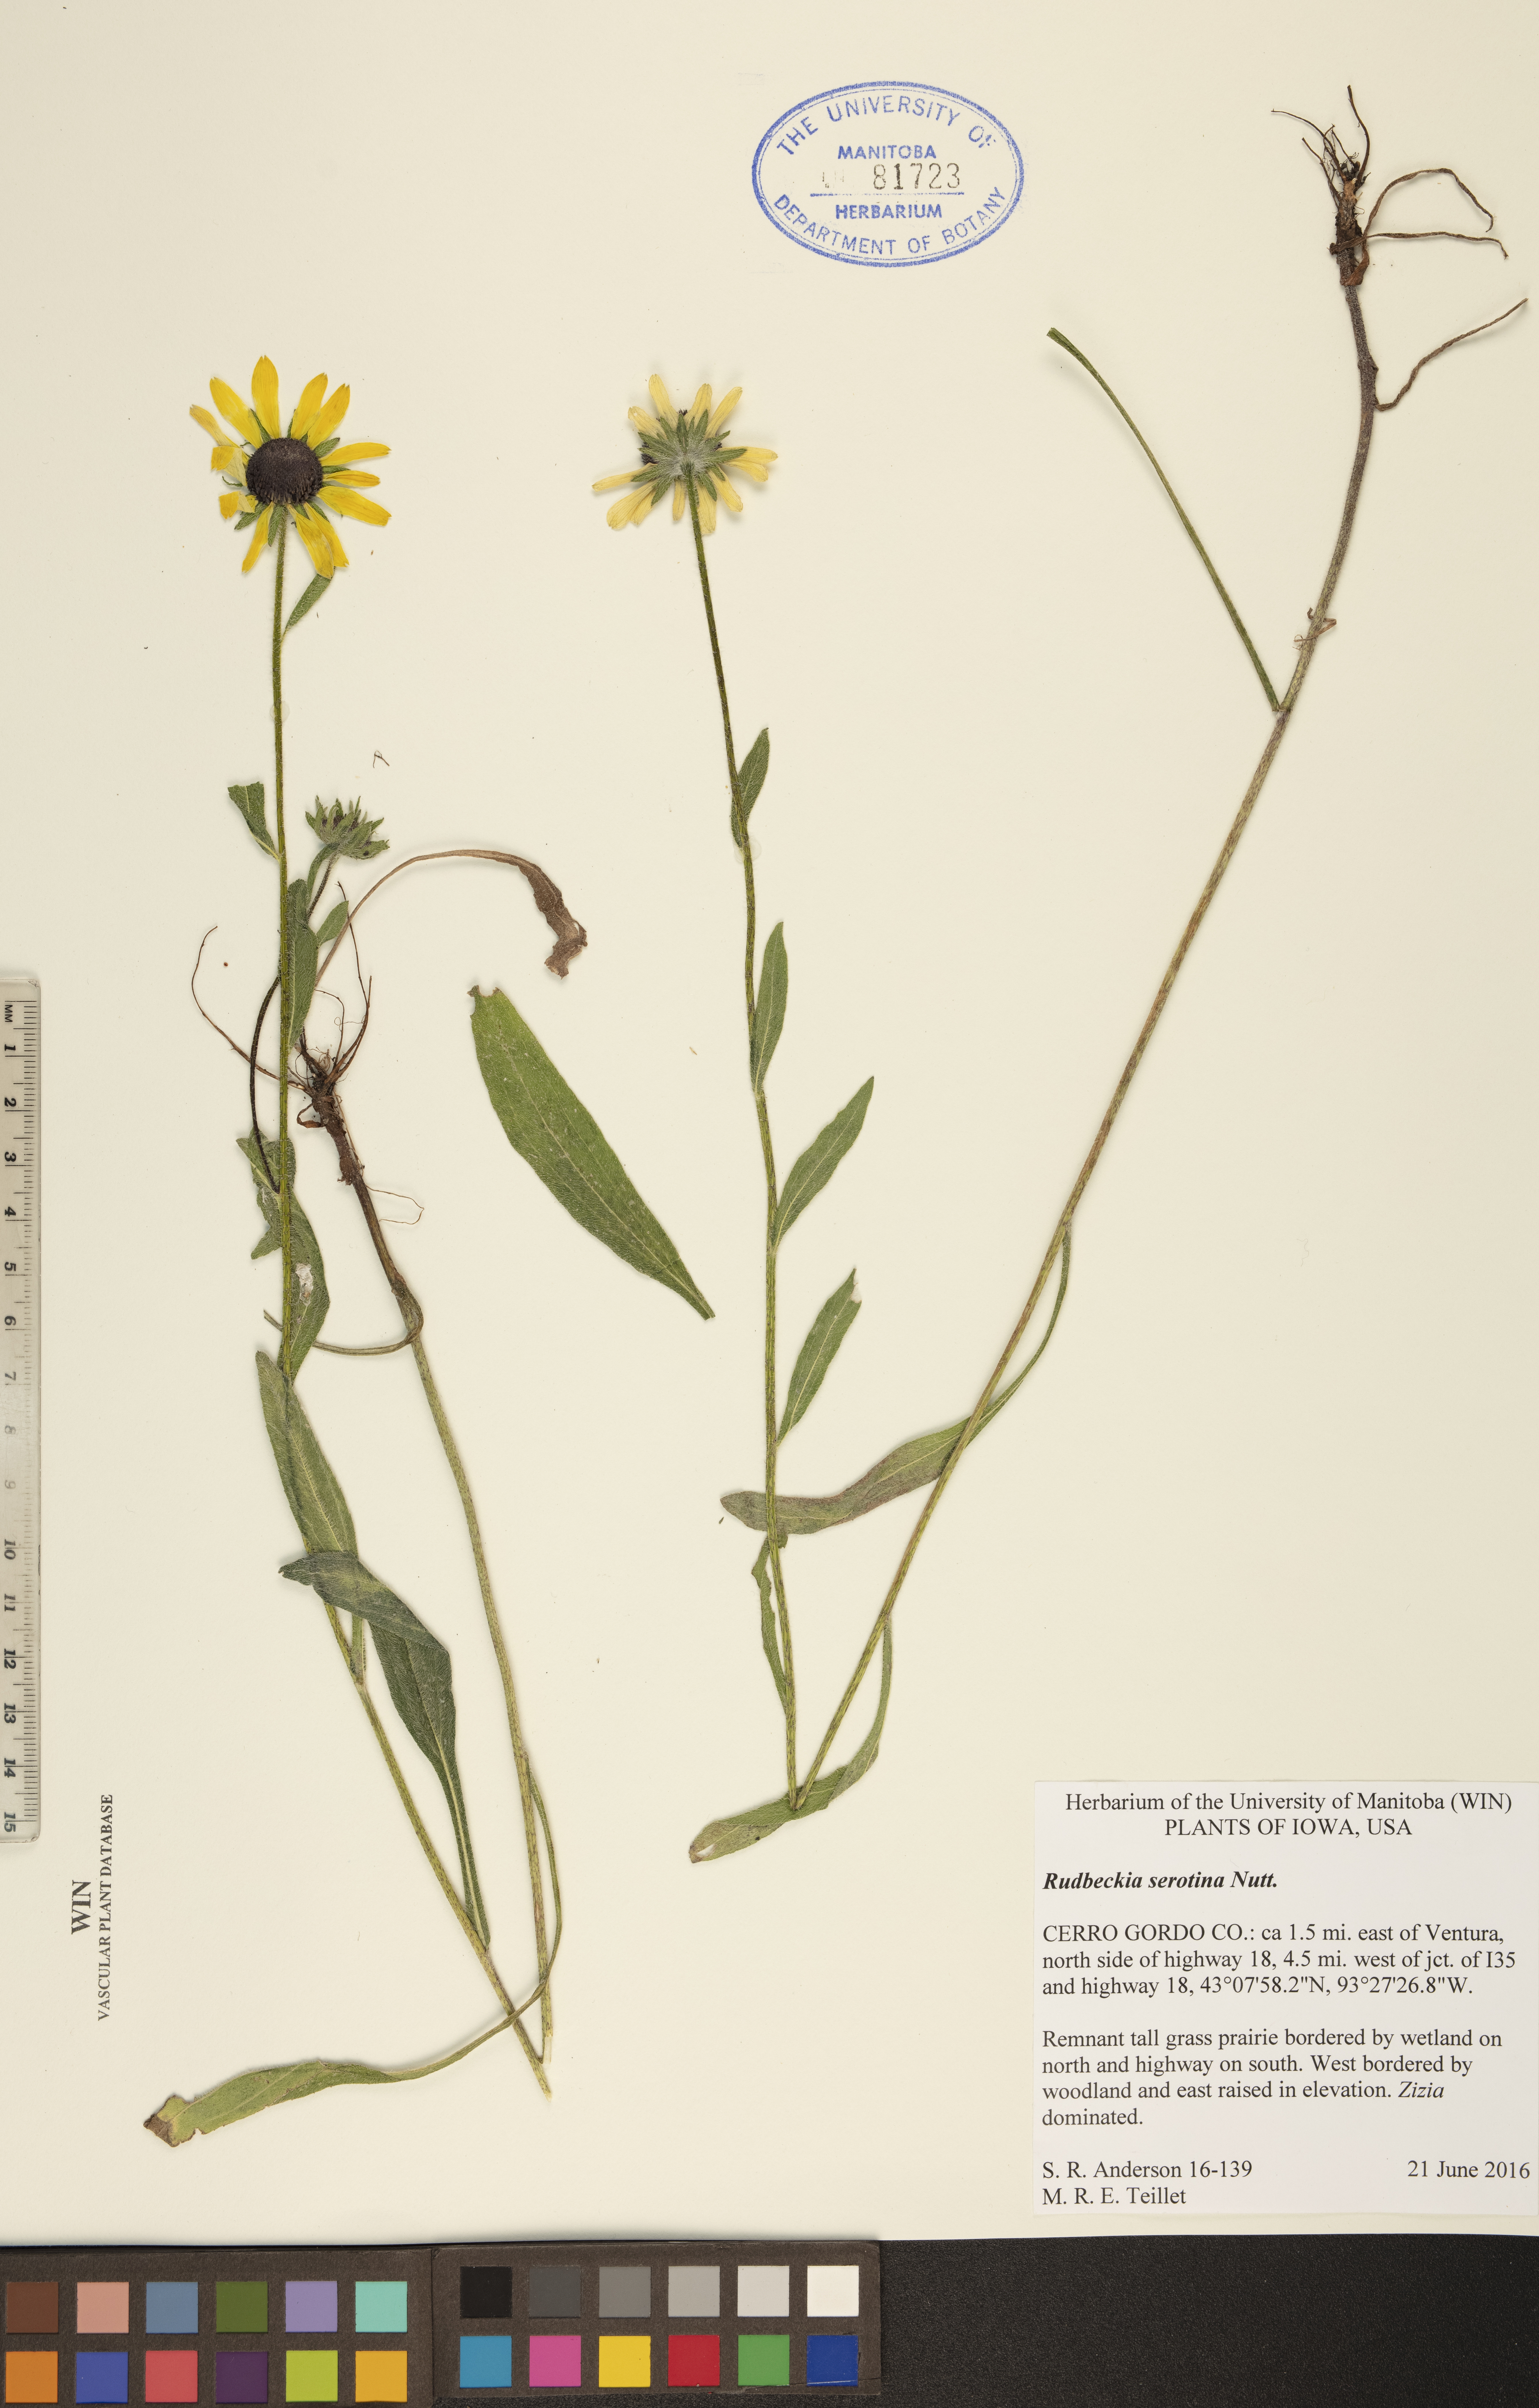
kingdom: Plantae
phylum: Tracheophyta
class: Magnoliopsida
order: Asterales
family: Asteraceae
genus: Echinacea
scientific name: Echinacea purpurea
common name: Broad-leaved purple coneflower
